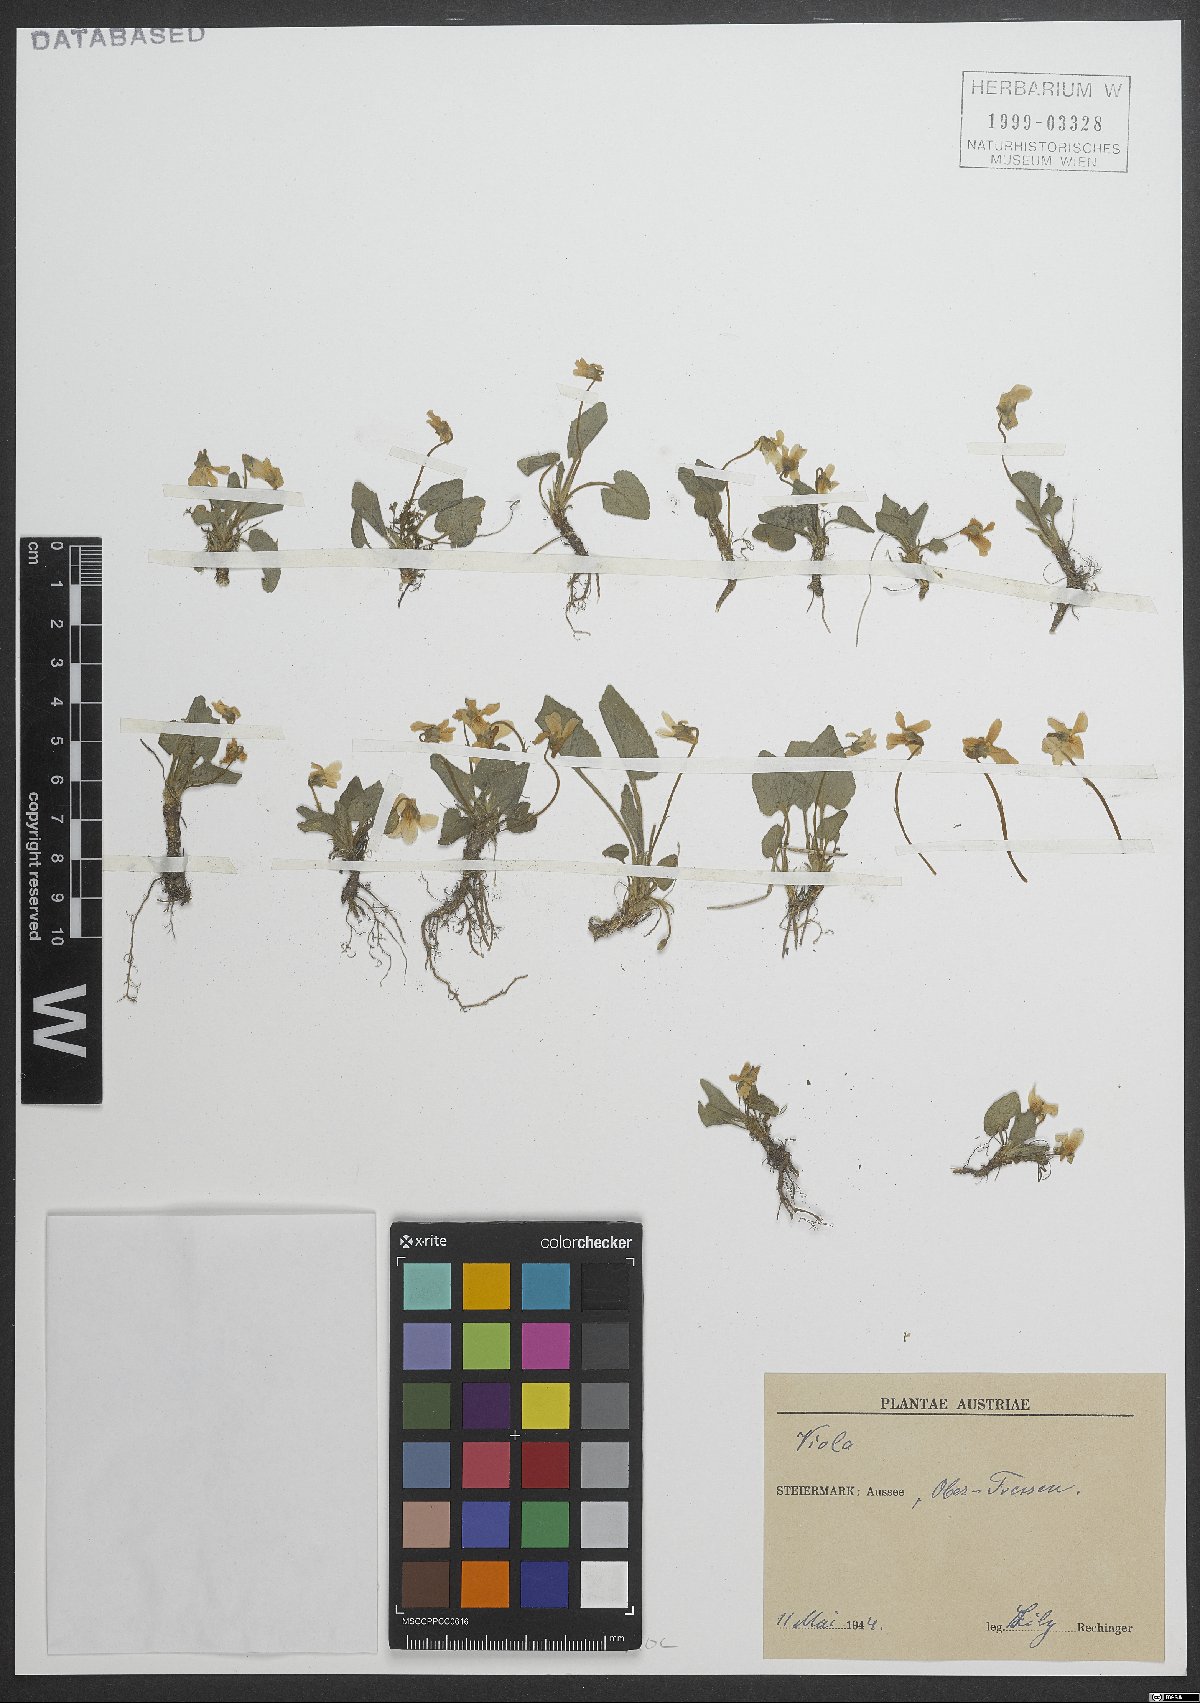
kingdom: Plantae
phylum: Tracheophyta
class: Magnoliopsida
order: Malpighiales
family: Violaceae
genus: Viola
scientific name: Viola
